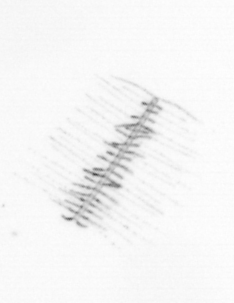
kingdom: Chromista
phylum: Ochrophyta
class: Bacillariophyceae
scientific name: Bacillariophyceae
